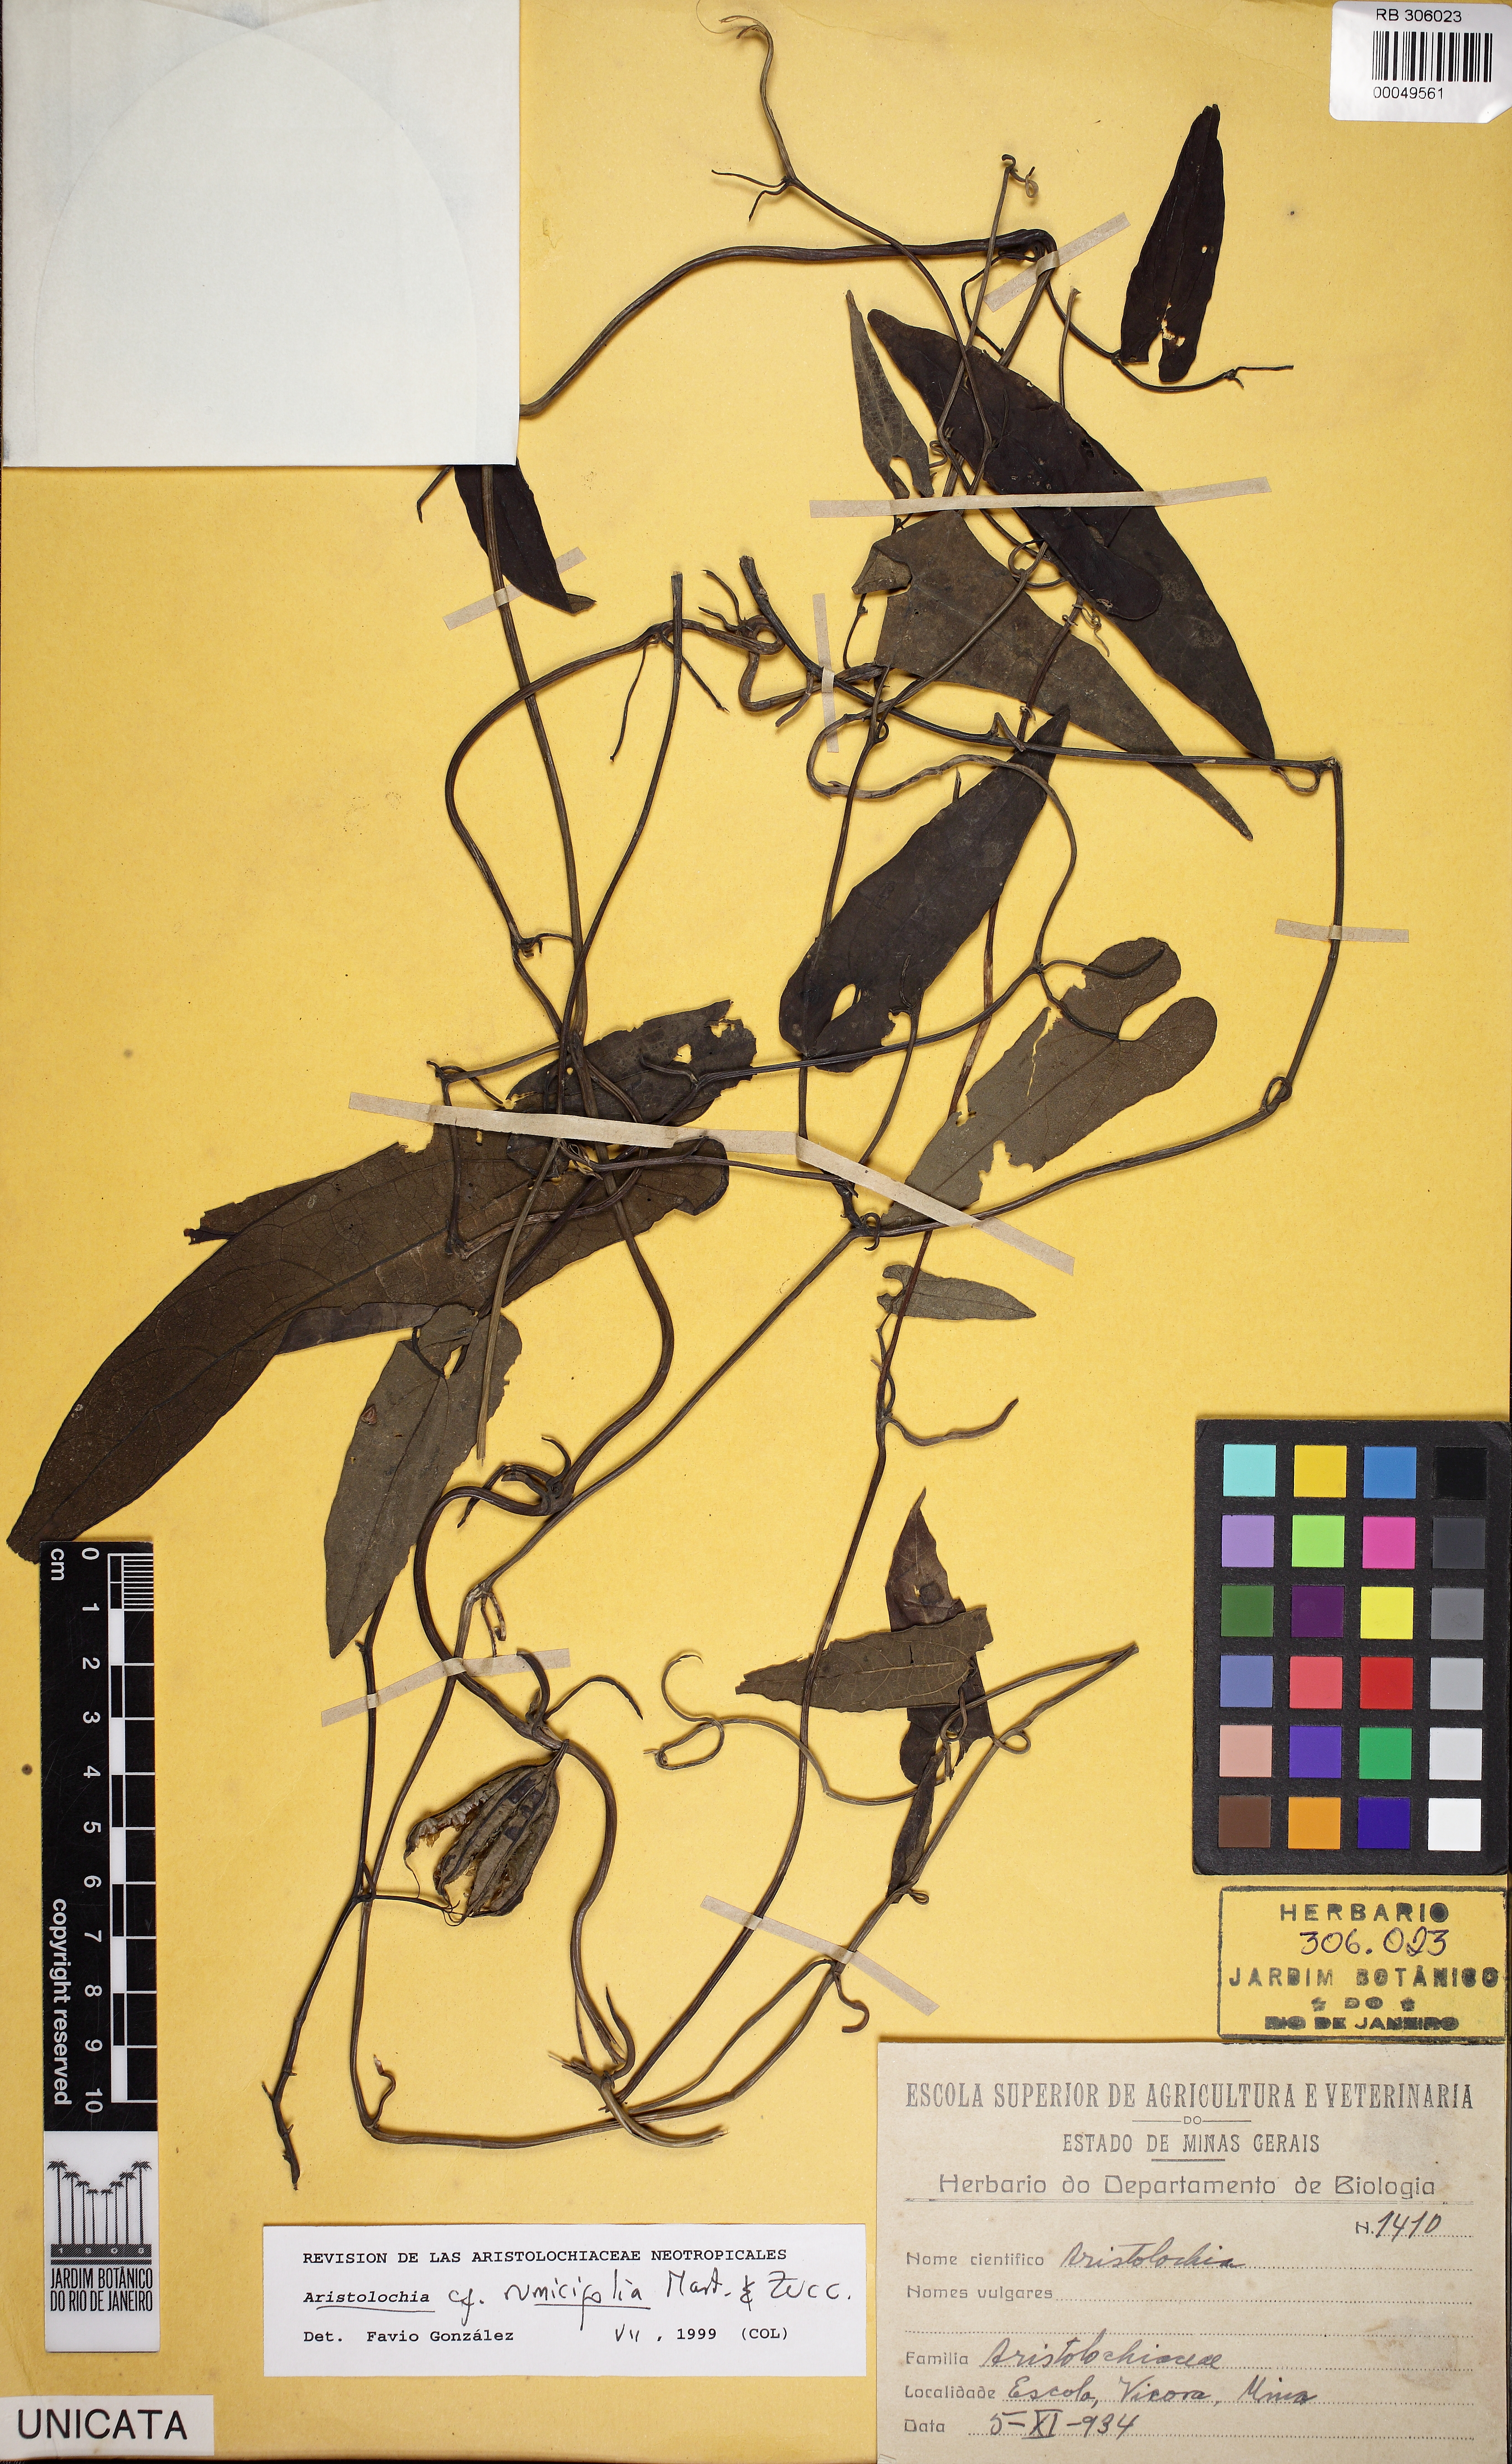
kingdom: Plantae
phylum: Tracheophyta
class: Magnoliopsida
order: Piperales
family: Aristolochiaceae
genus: Aristolochia
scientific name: Aristolochia rumicifolia
